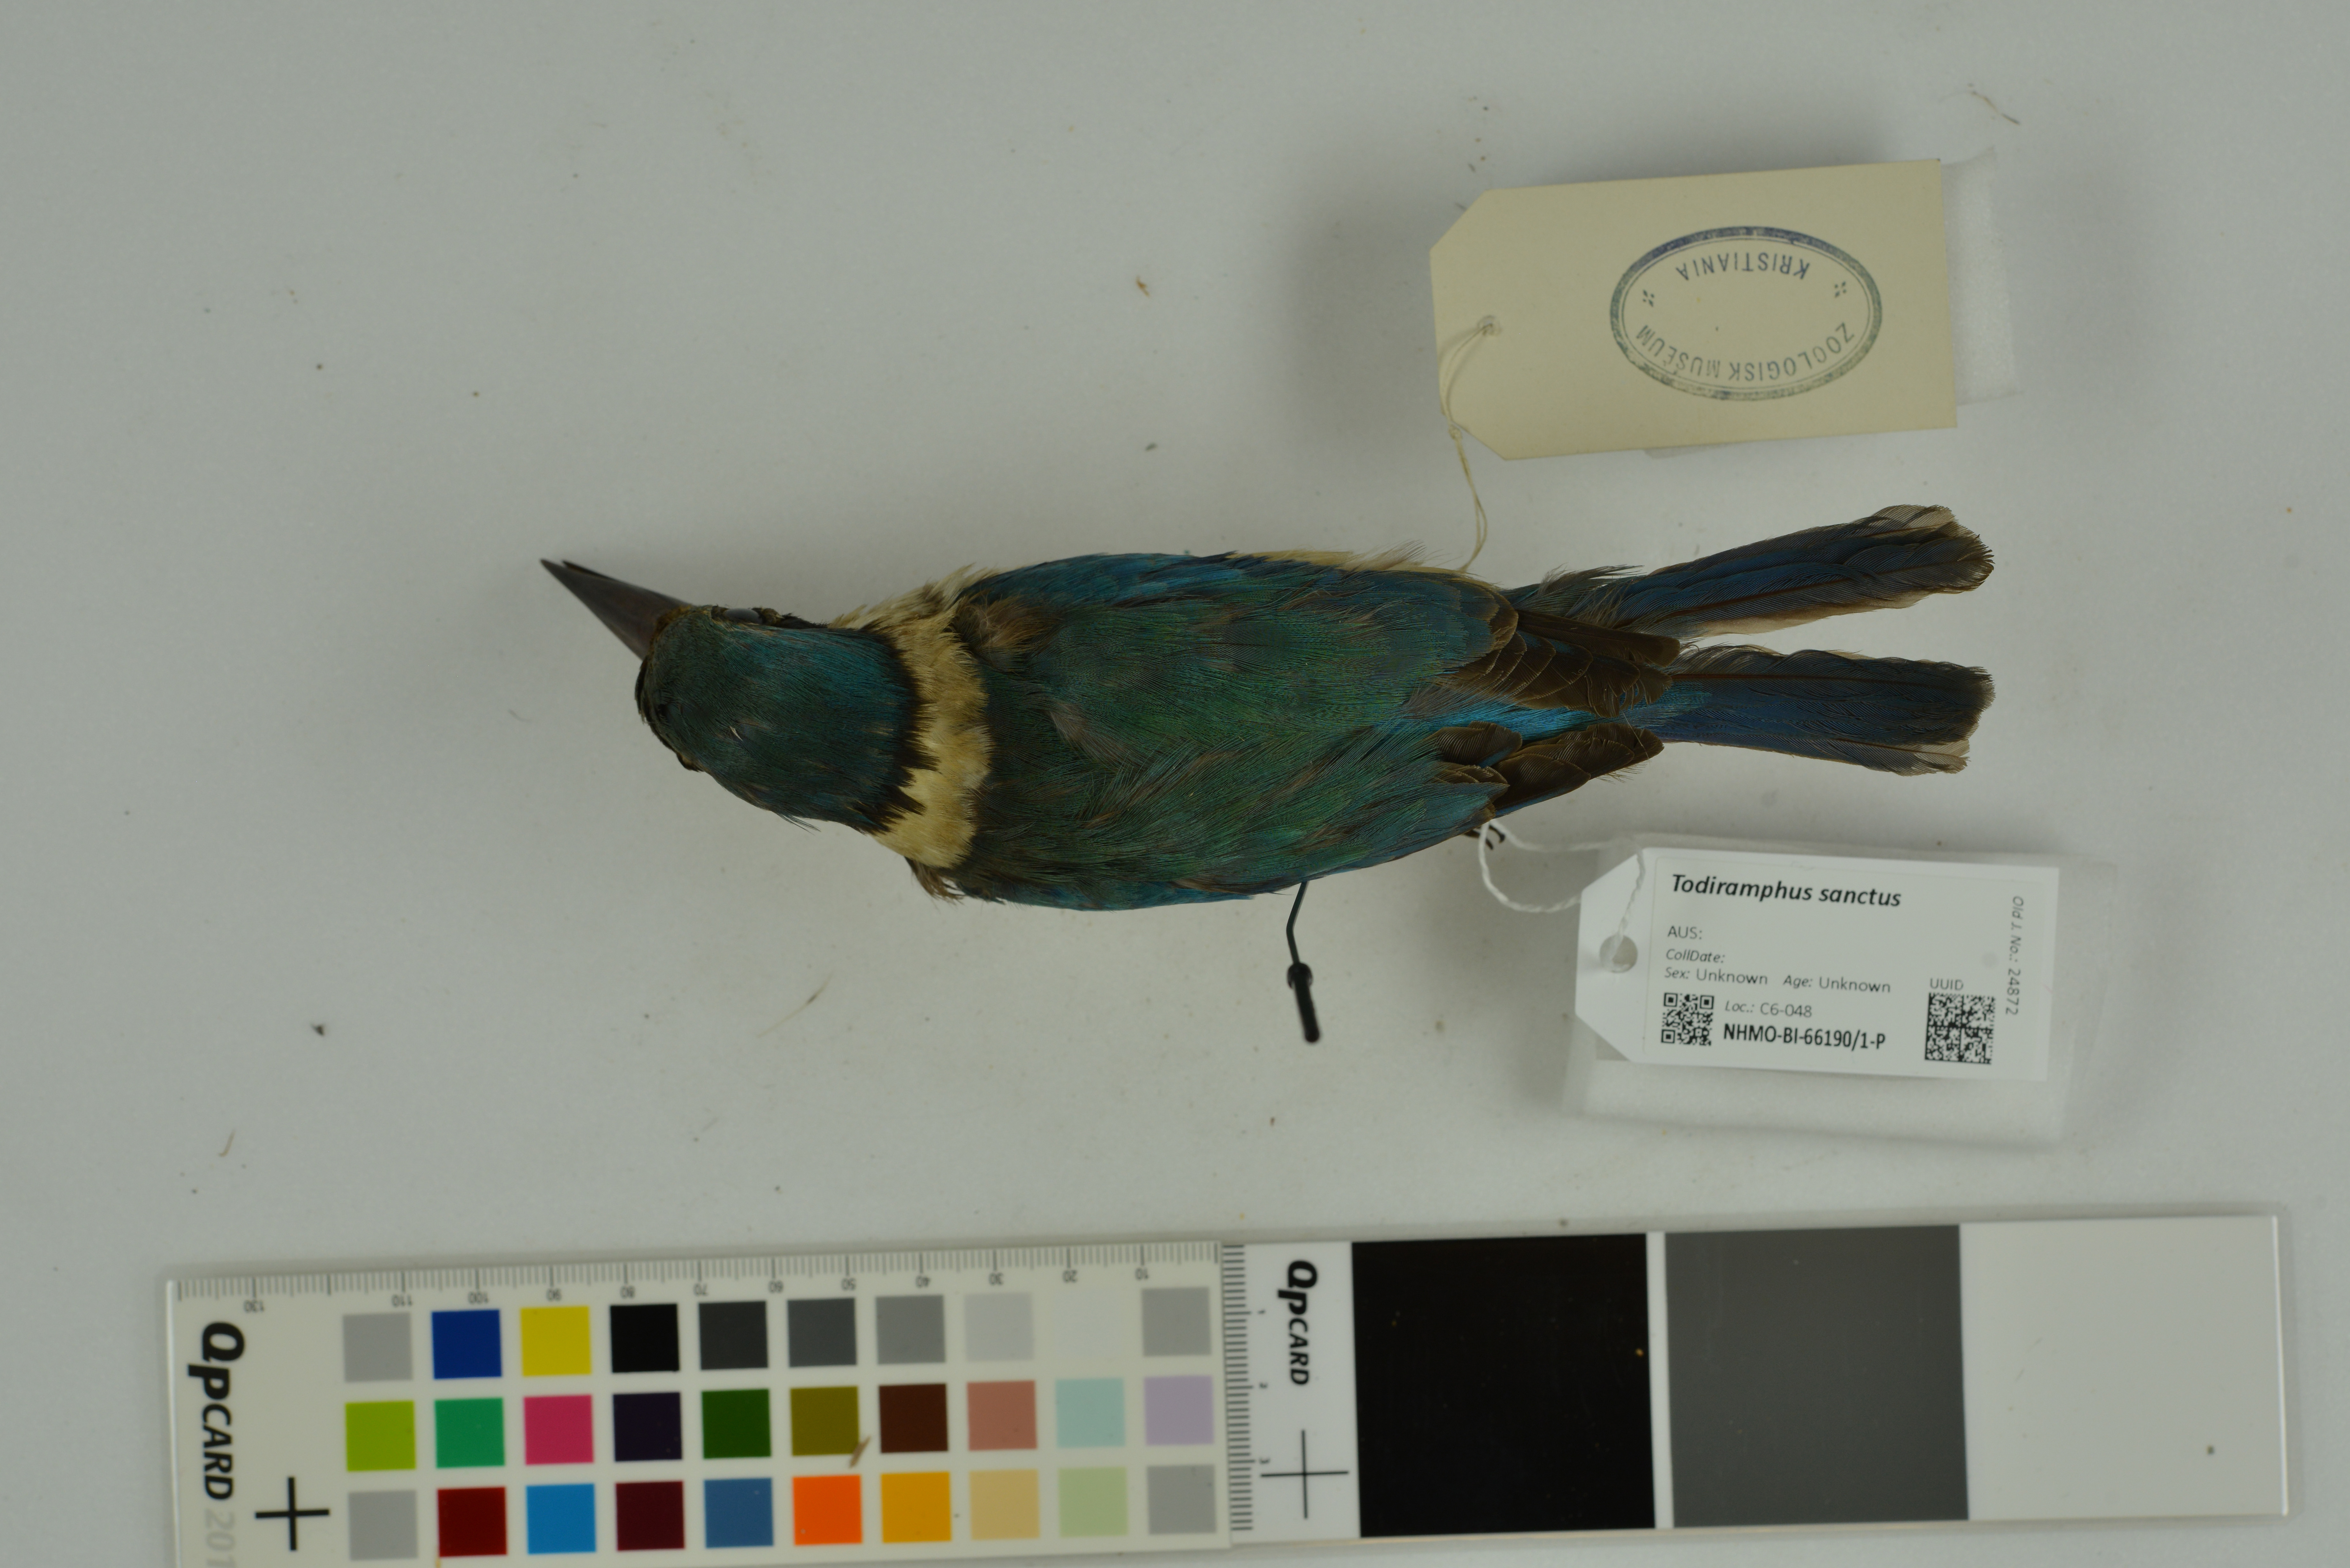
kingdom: Animalia
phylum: Chordata
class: Aves
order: Coraciiformes
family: Alcedinidae
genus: Todiramphus
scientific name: Todiramphus sanctus
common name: Sacred kingfisher
